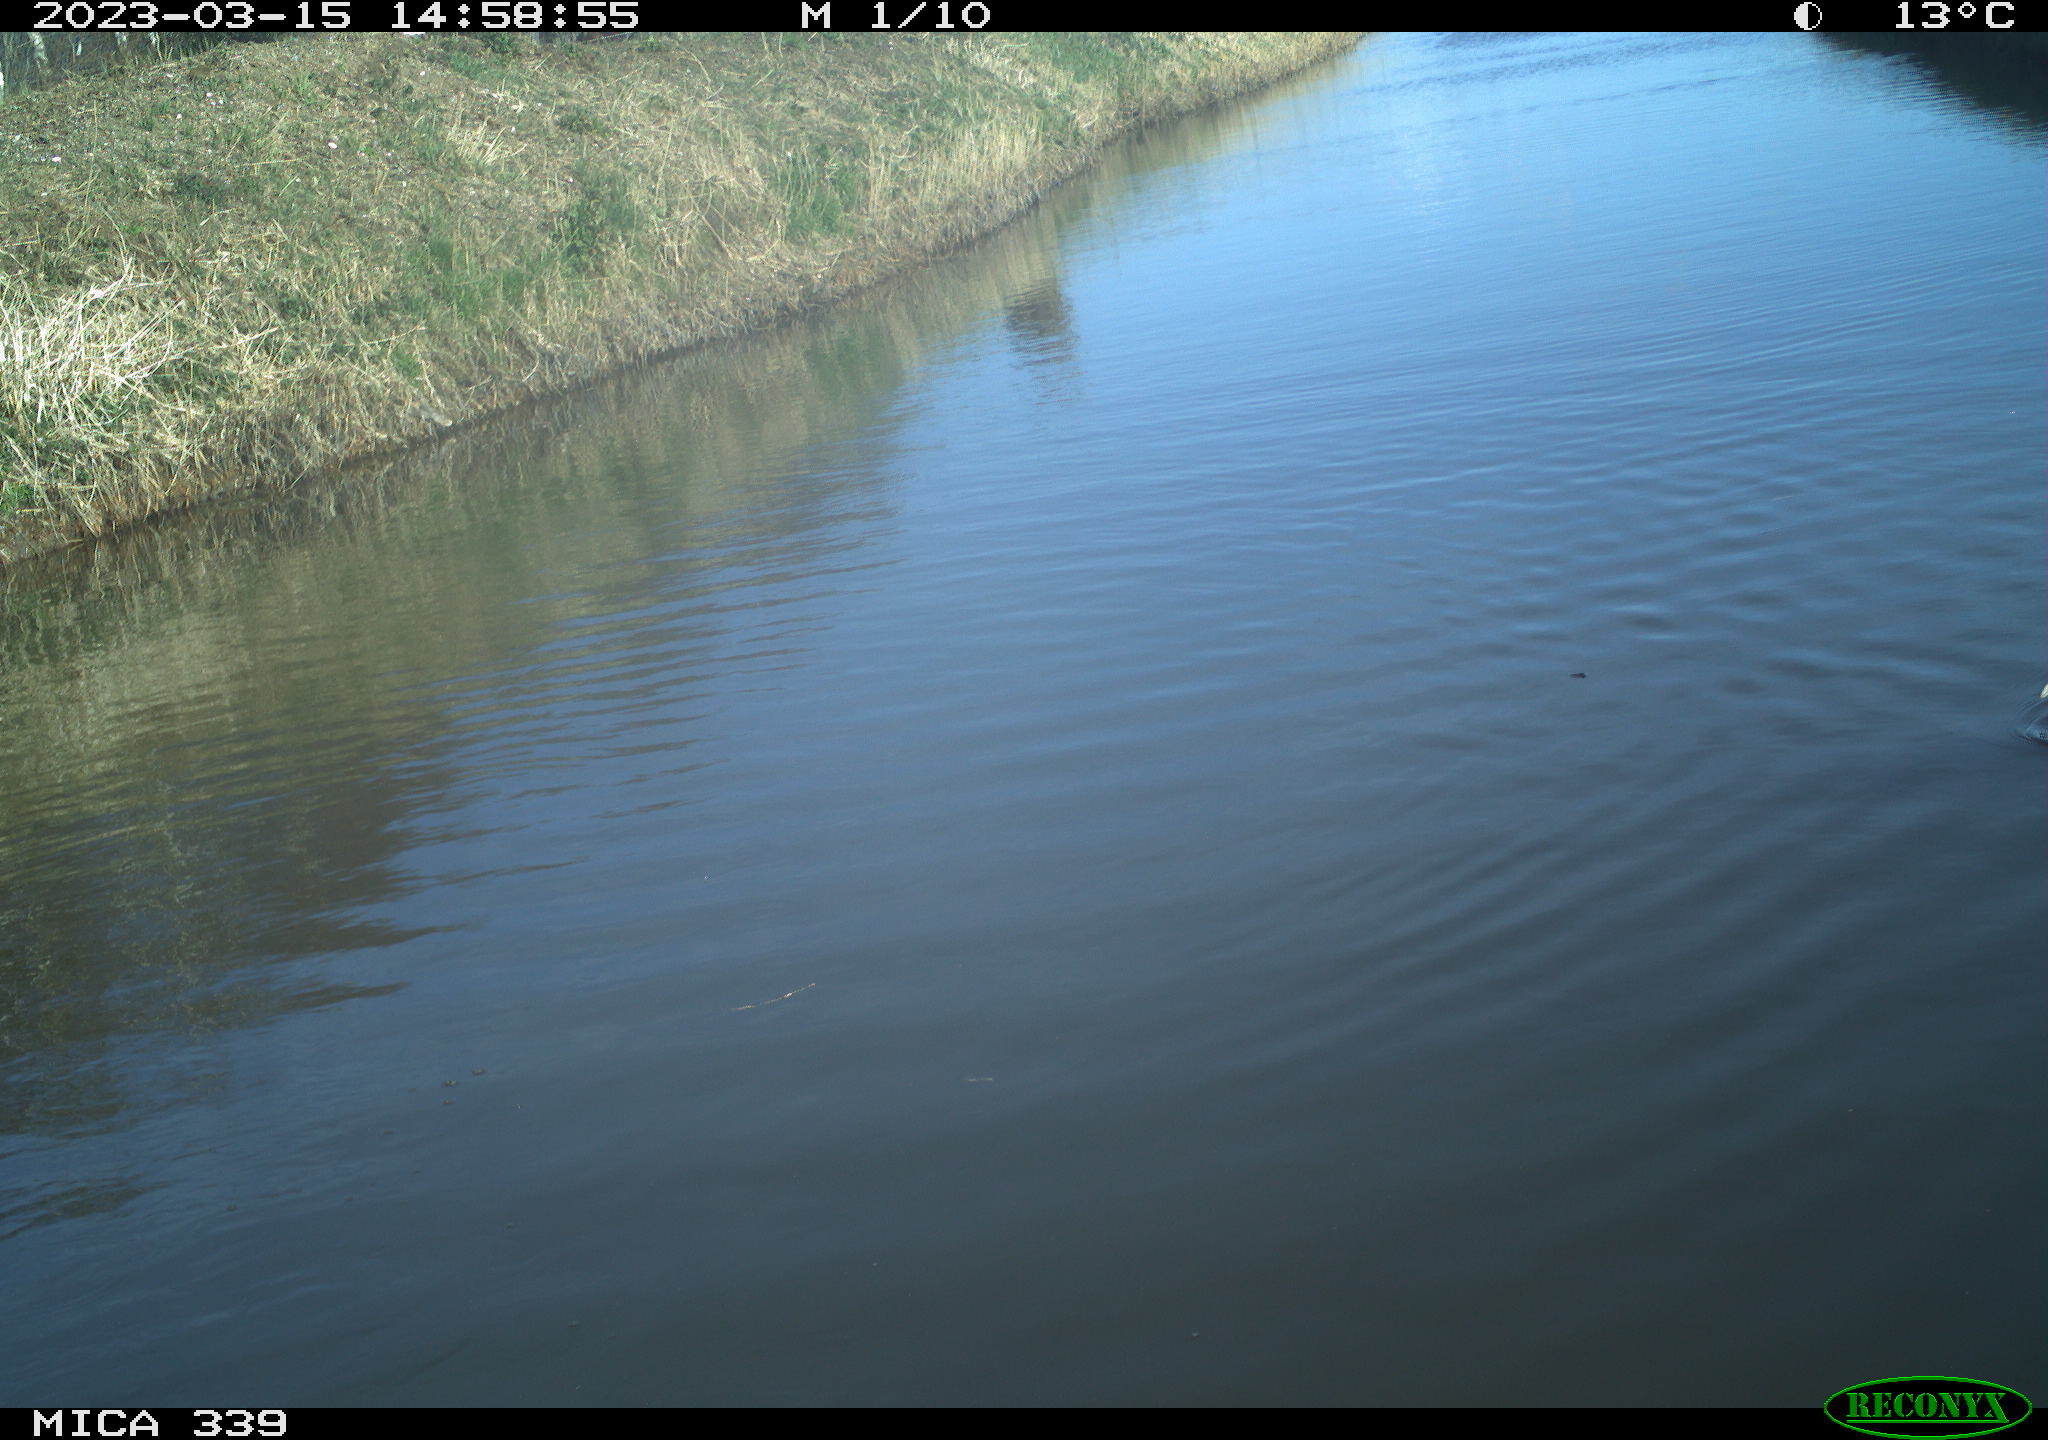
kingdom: Animalia
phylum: Chordata
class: Aves
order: Anseriformes
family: Anatidae
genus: Anas
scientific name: Anas
